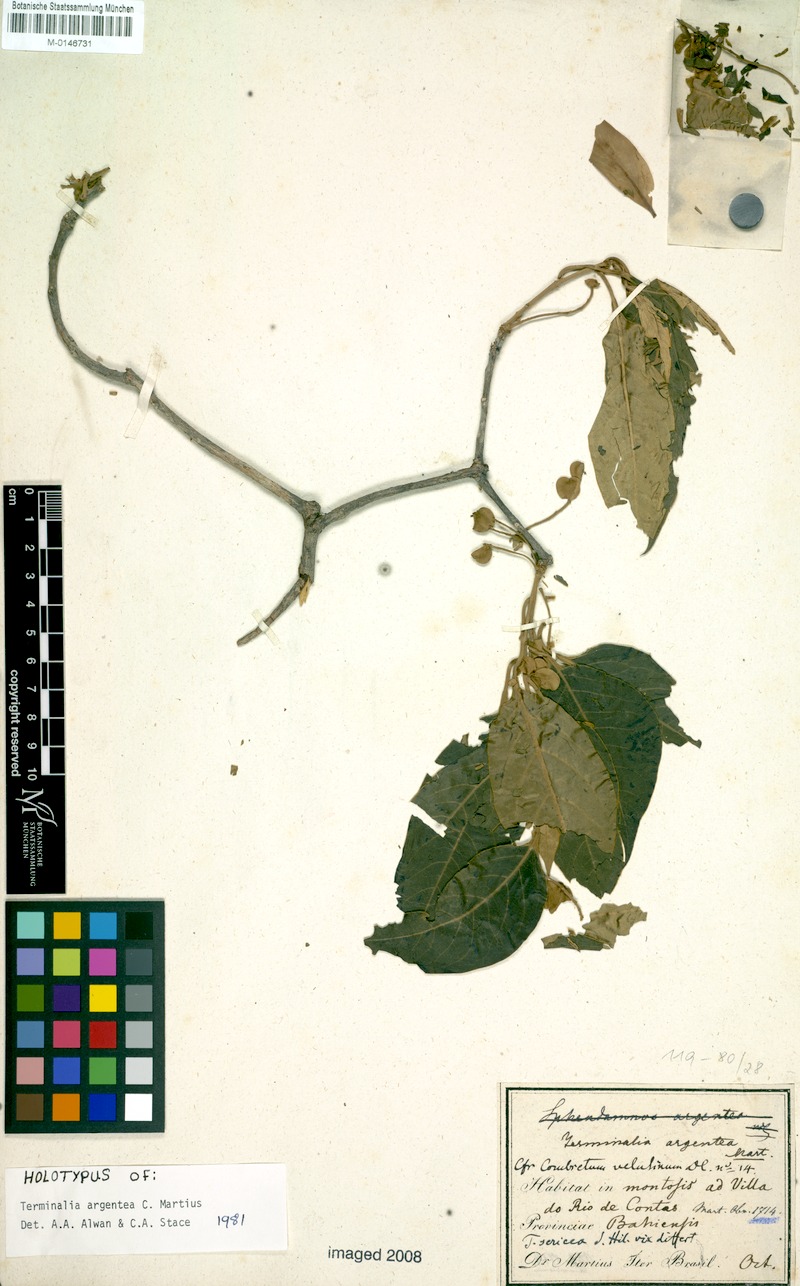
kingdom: Plantae
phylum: Tracheophyta
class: Magnoliopsida
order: Myrtales
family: Combretaceae
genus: Terminalia
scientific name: Terminalia argentea
